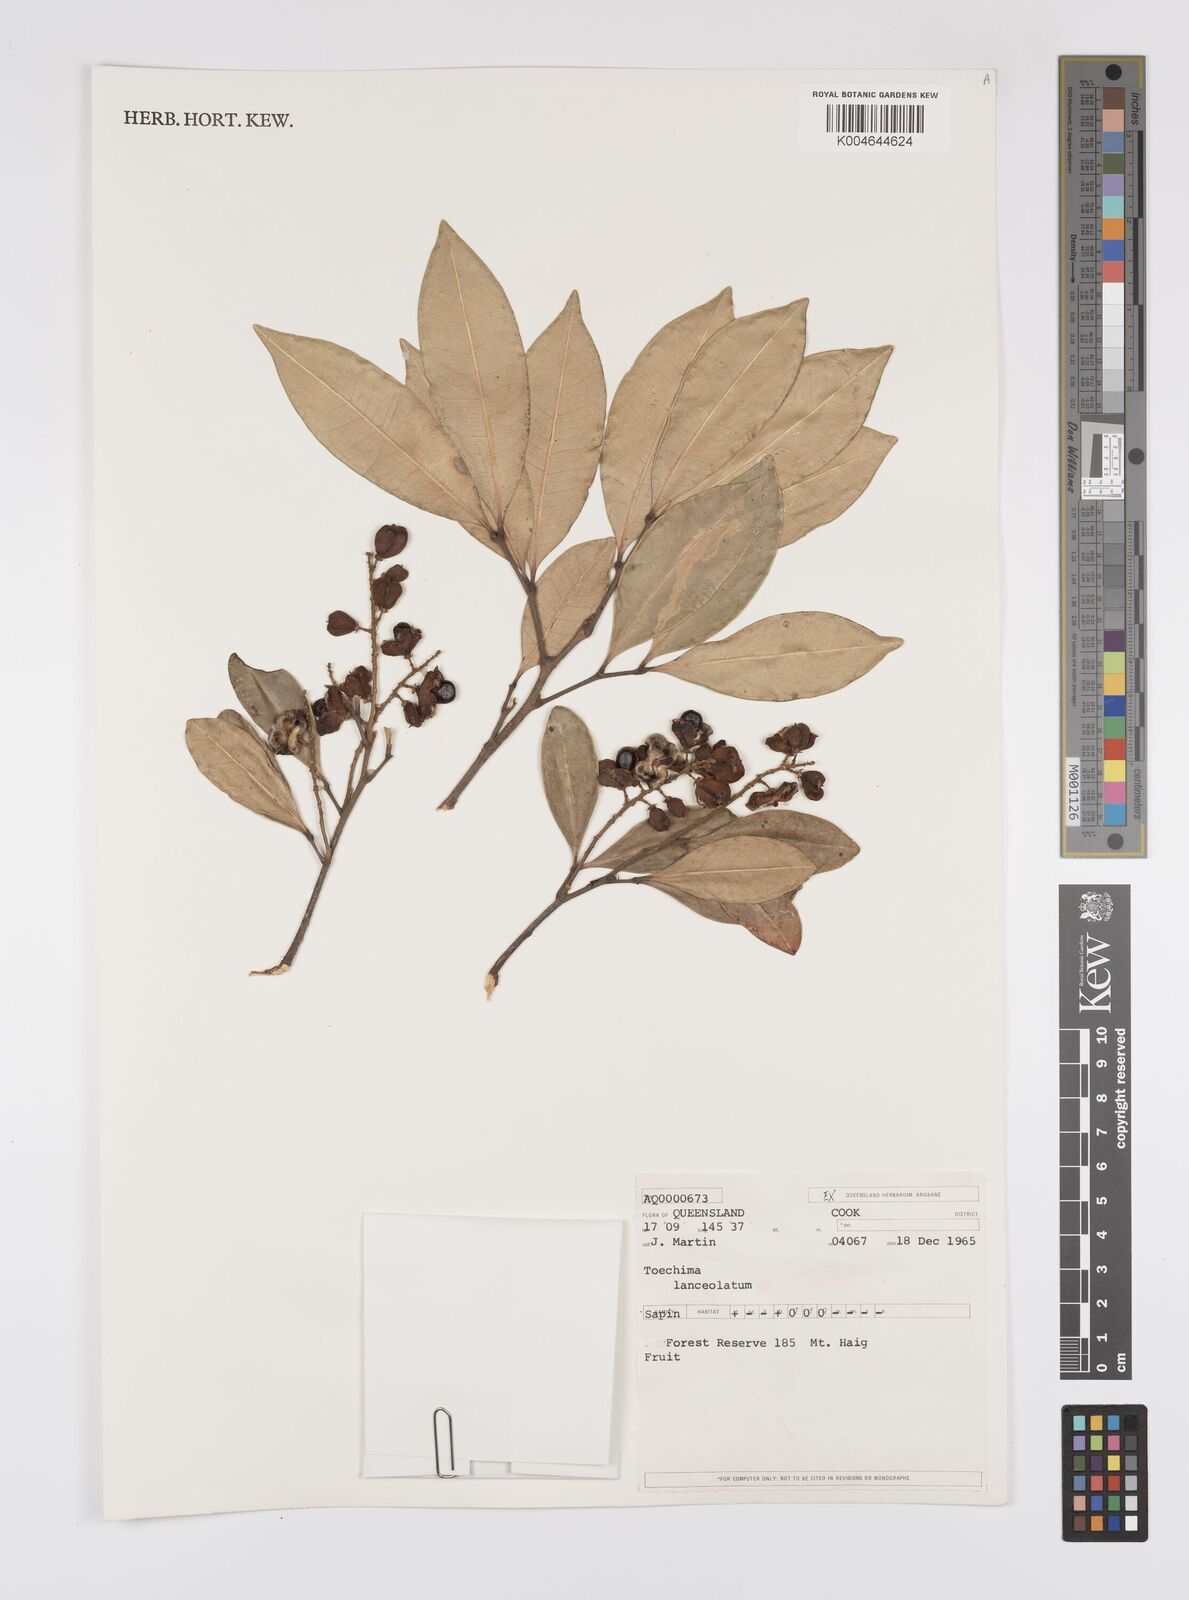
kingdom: Plantae
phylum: Tracheophyta
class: Magnoliopsida
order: Sapindales
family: Sapindaceae
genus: Sarcotoechia
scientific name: Sarcotoechia lanceolata
